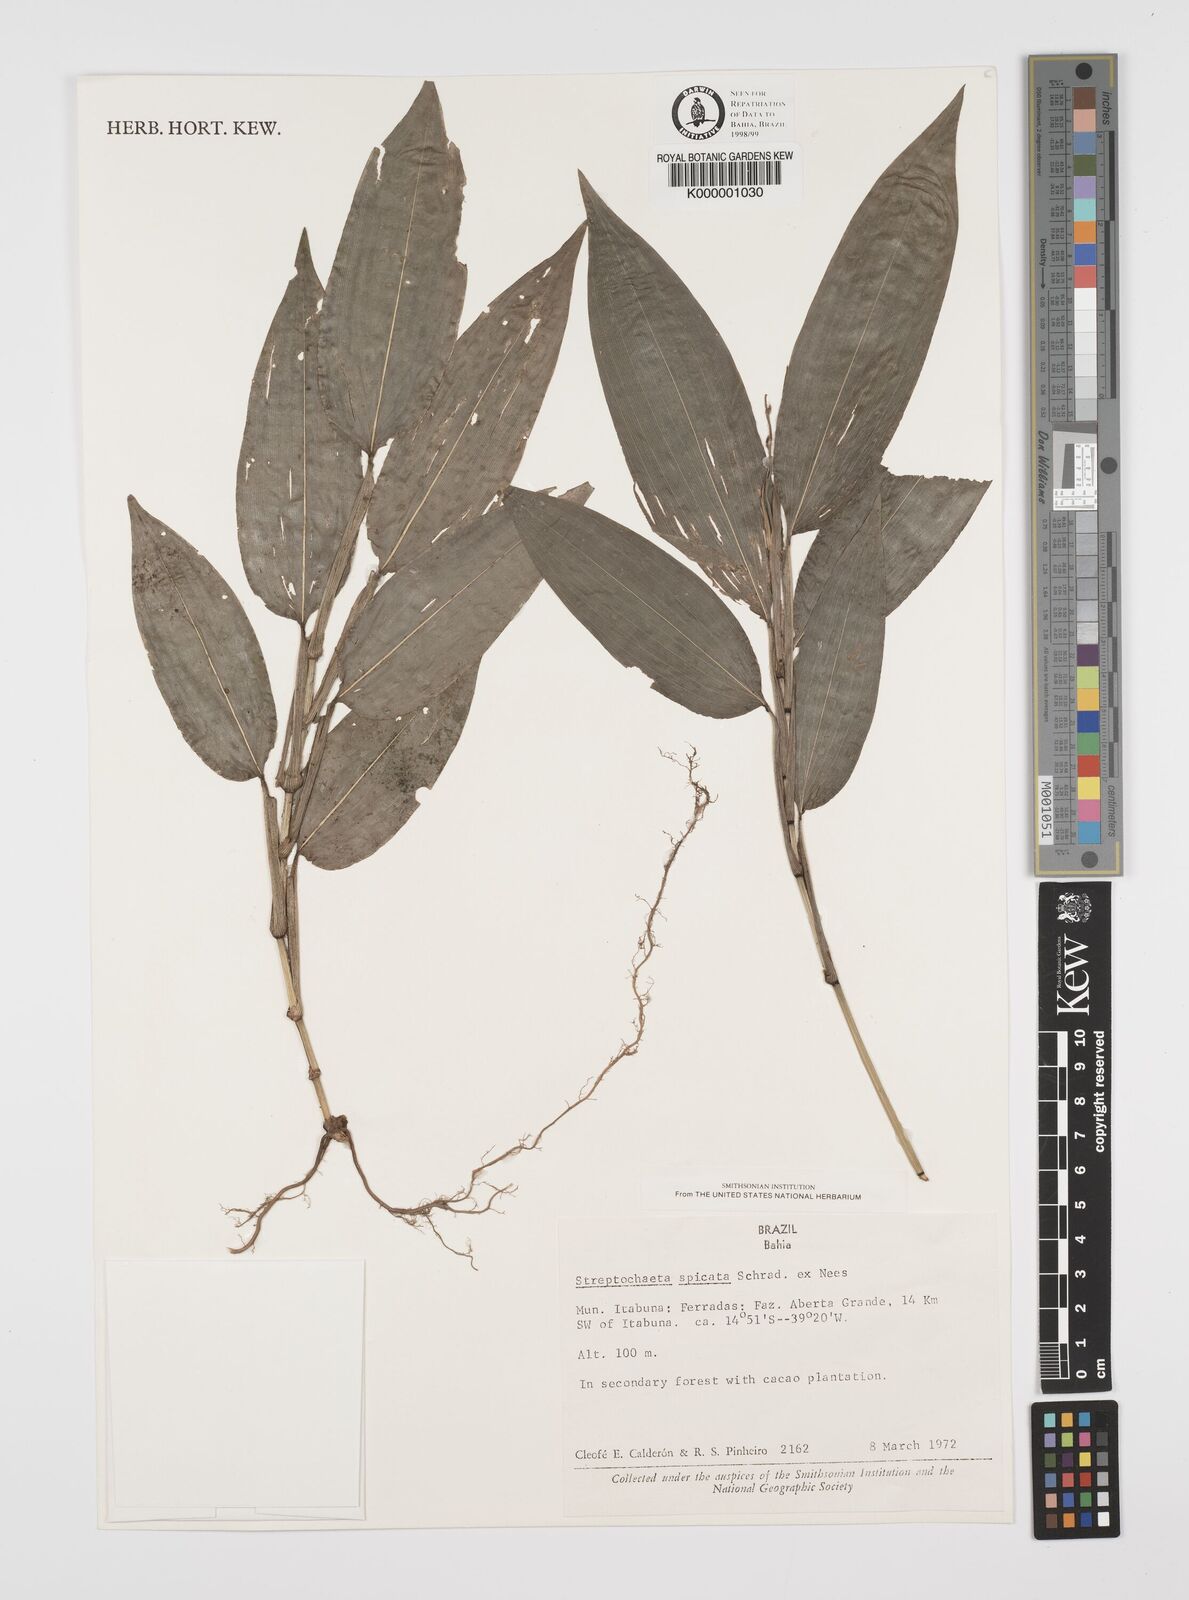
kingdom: Plantae
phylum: Tracheophyta
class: Liliopsida
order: Poales
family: Poaceae
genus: Streptochaeta
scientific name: Streptochaeta spicata
